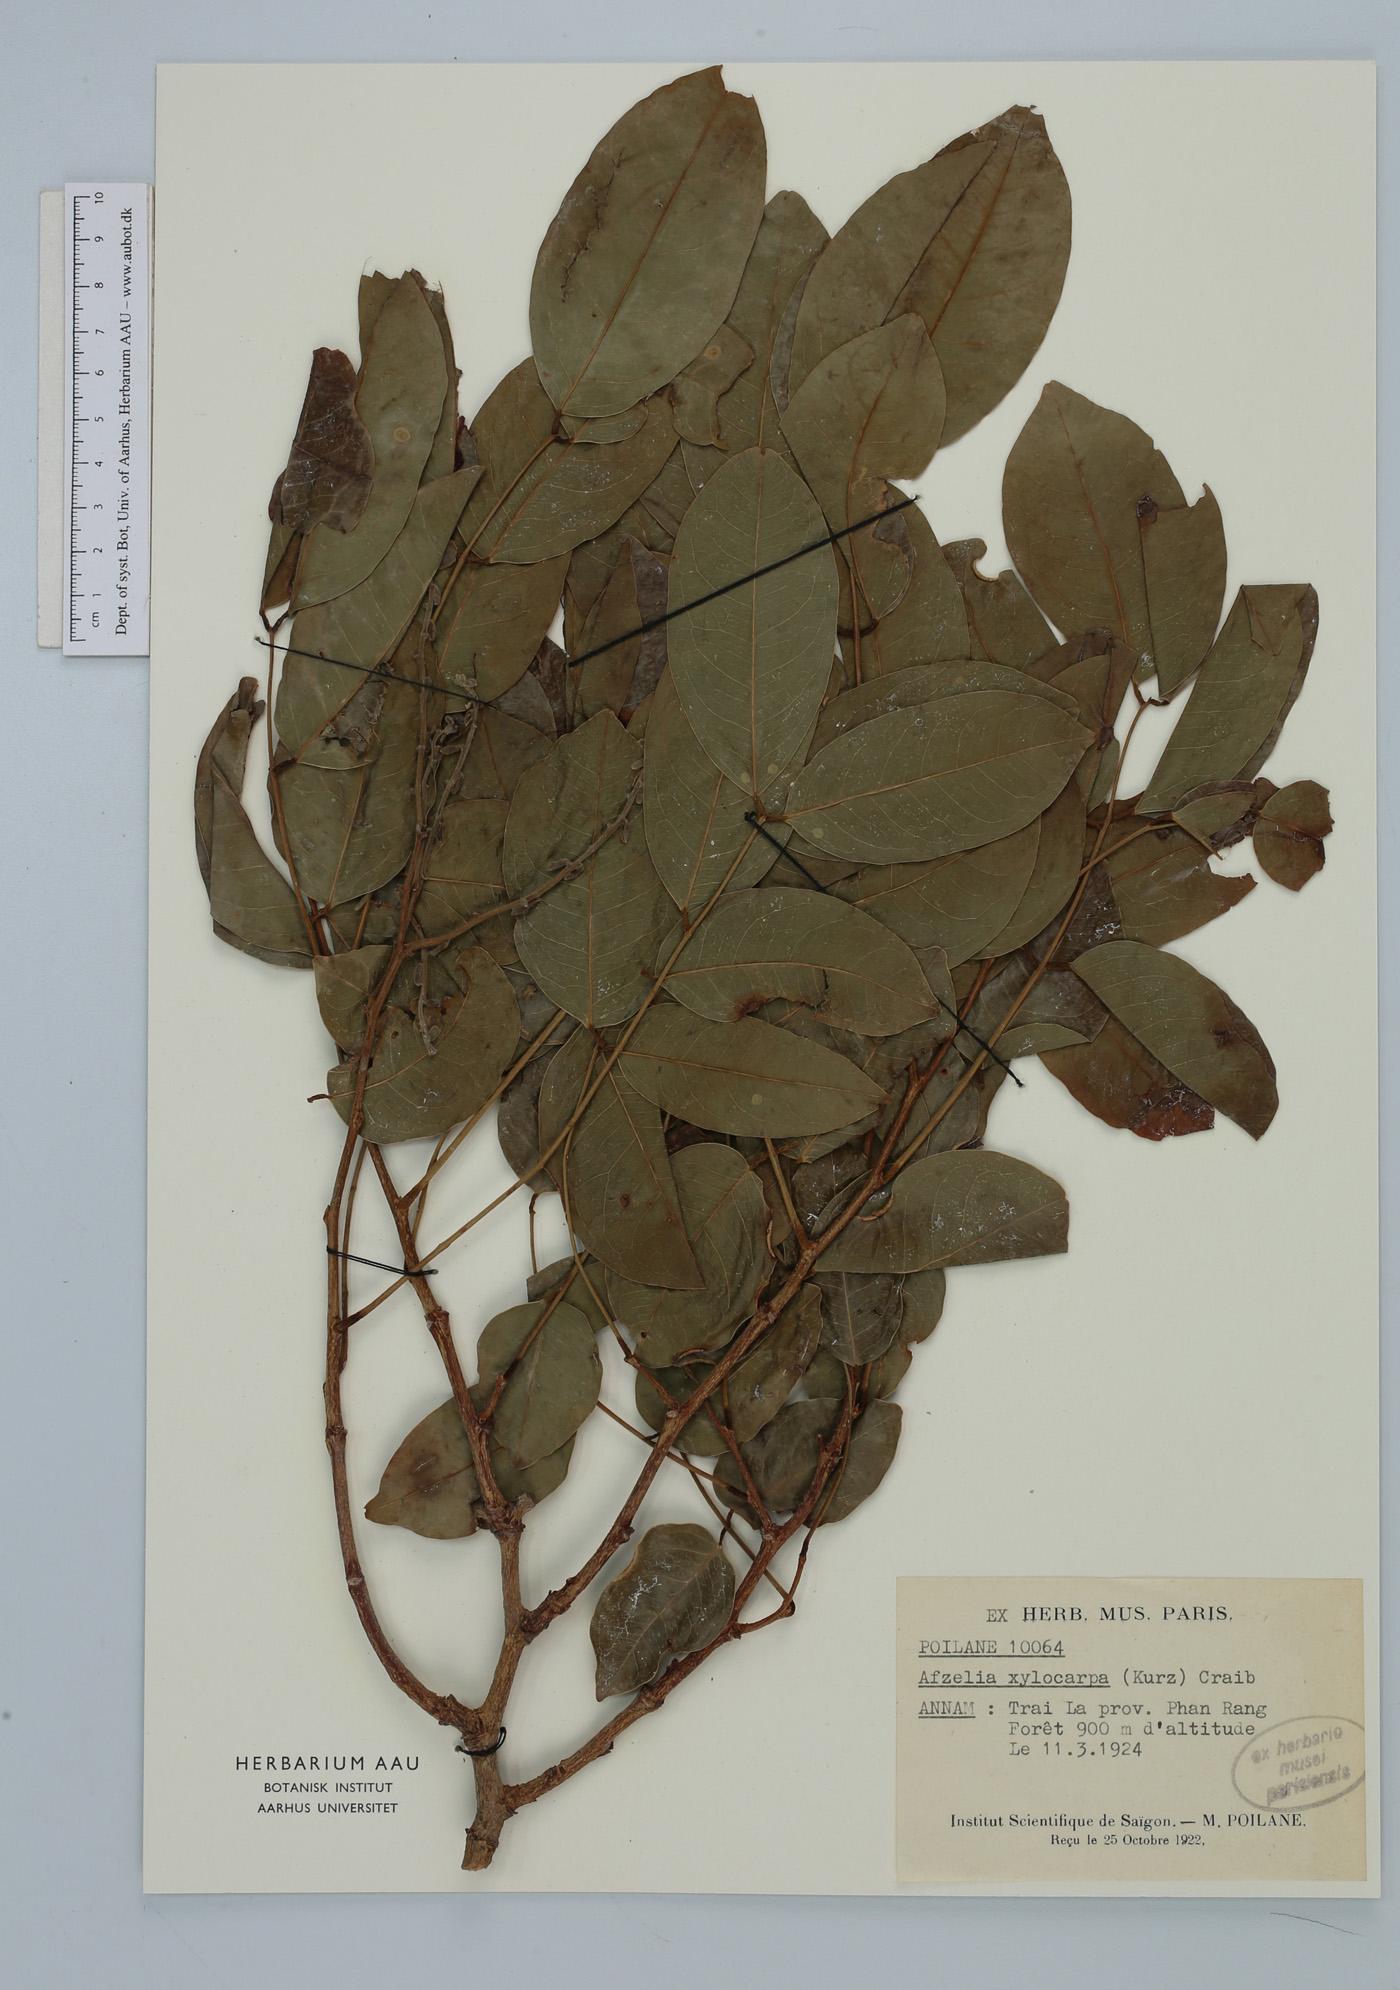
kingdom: Plantae
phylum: Tracheophyta
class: Magnoliopsida
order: Fabales
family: Fabaceae
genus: Afzelia
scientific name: Afzelia xylocarpa
